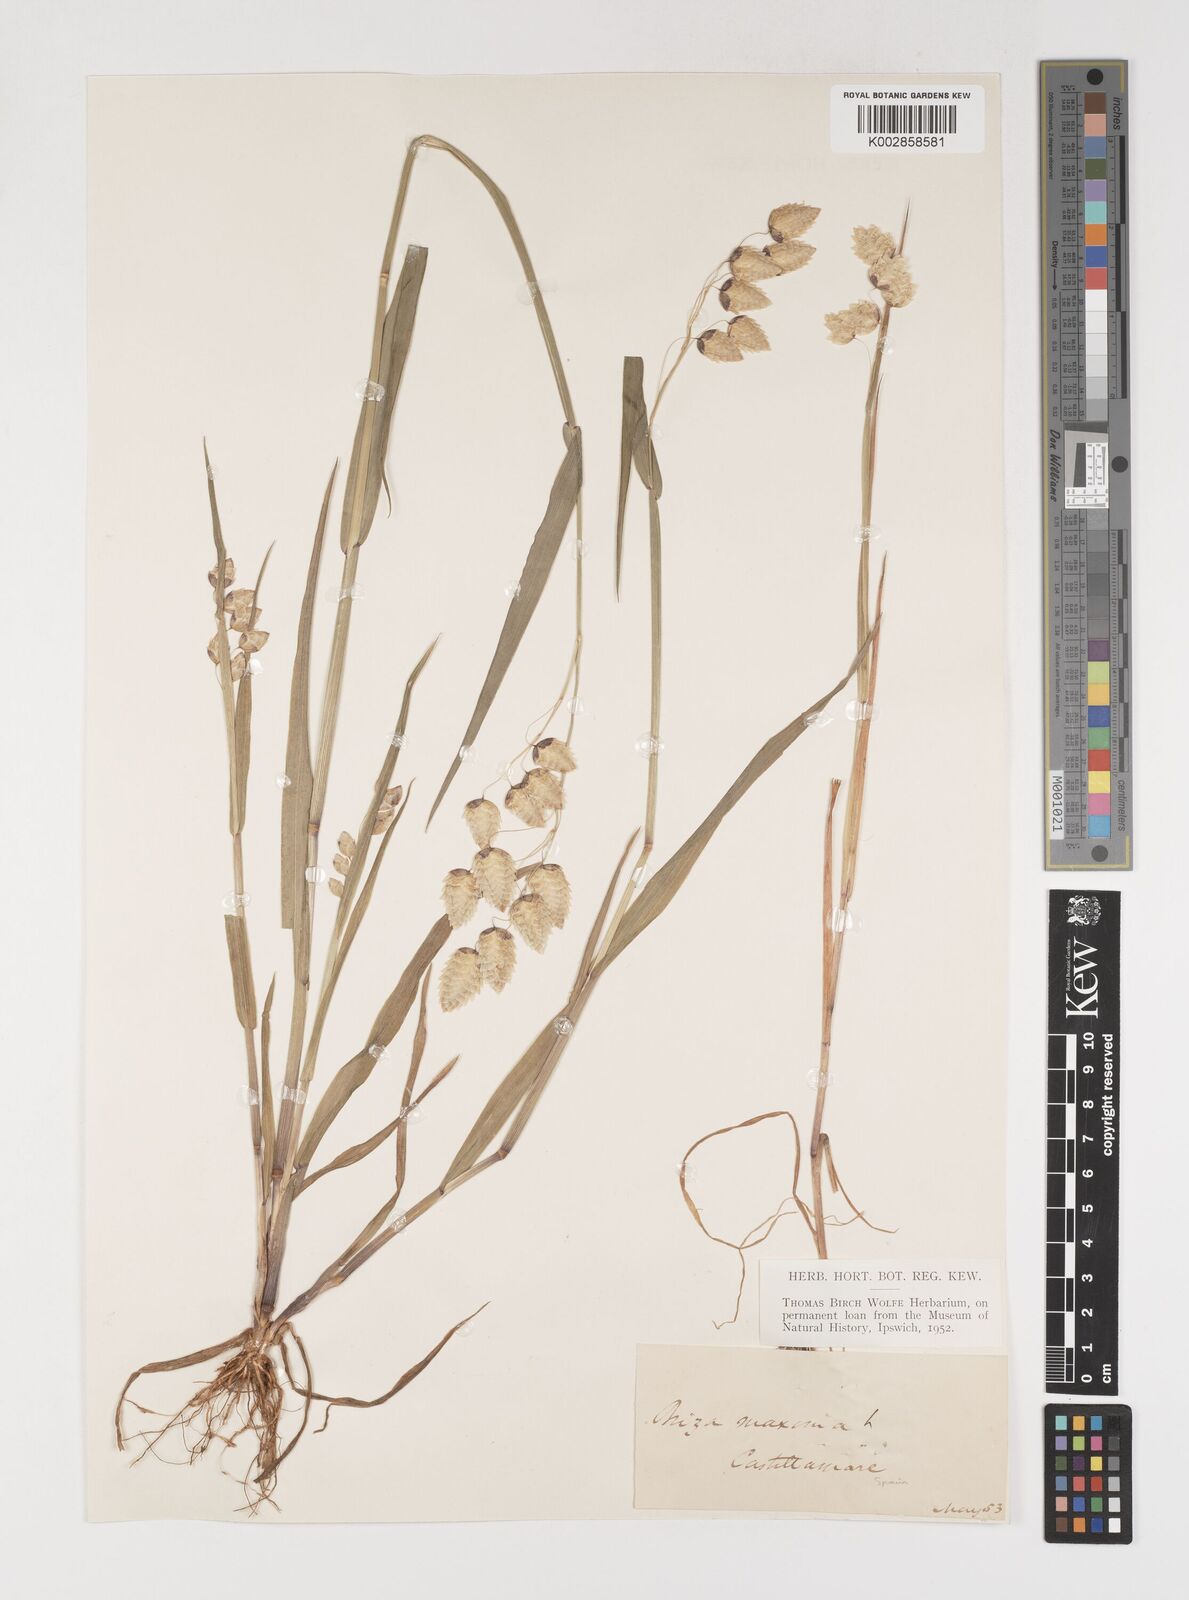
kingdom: Plantae
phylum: Tracheophyta
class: Liliopsida
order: Poales
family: Poaceae
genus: Briza
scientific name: Briza maxima
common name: Big quakinggrass
